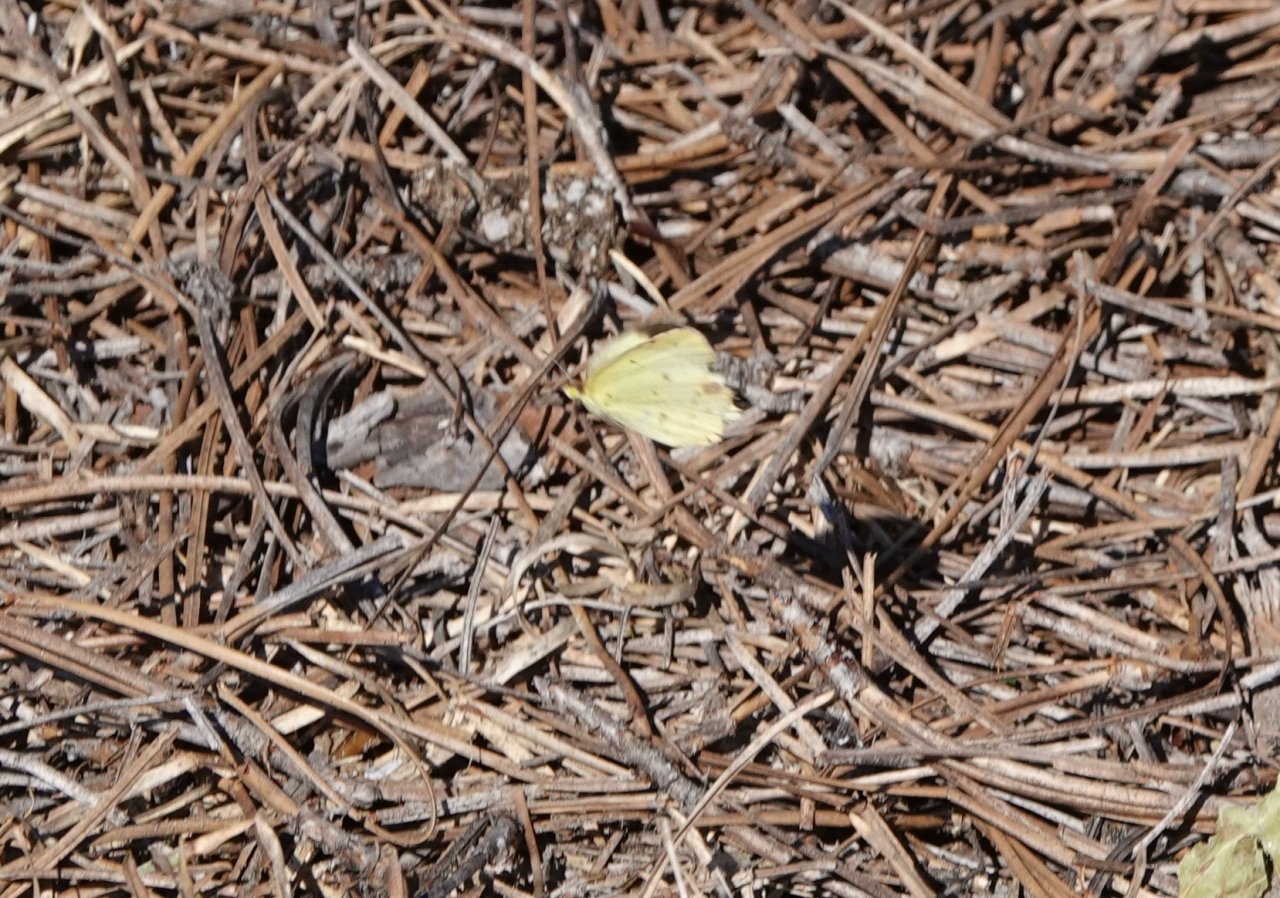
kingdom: Animalia
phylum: Arthropoda
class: Insecta
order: Lepidoptera
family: Pieridae
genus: Pyrisitia
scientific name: Pyrisitia lisa
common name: Little Yellow
